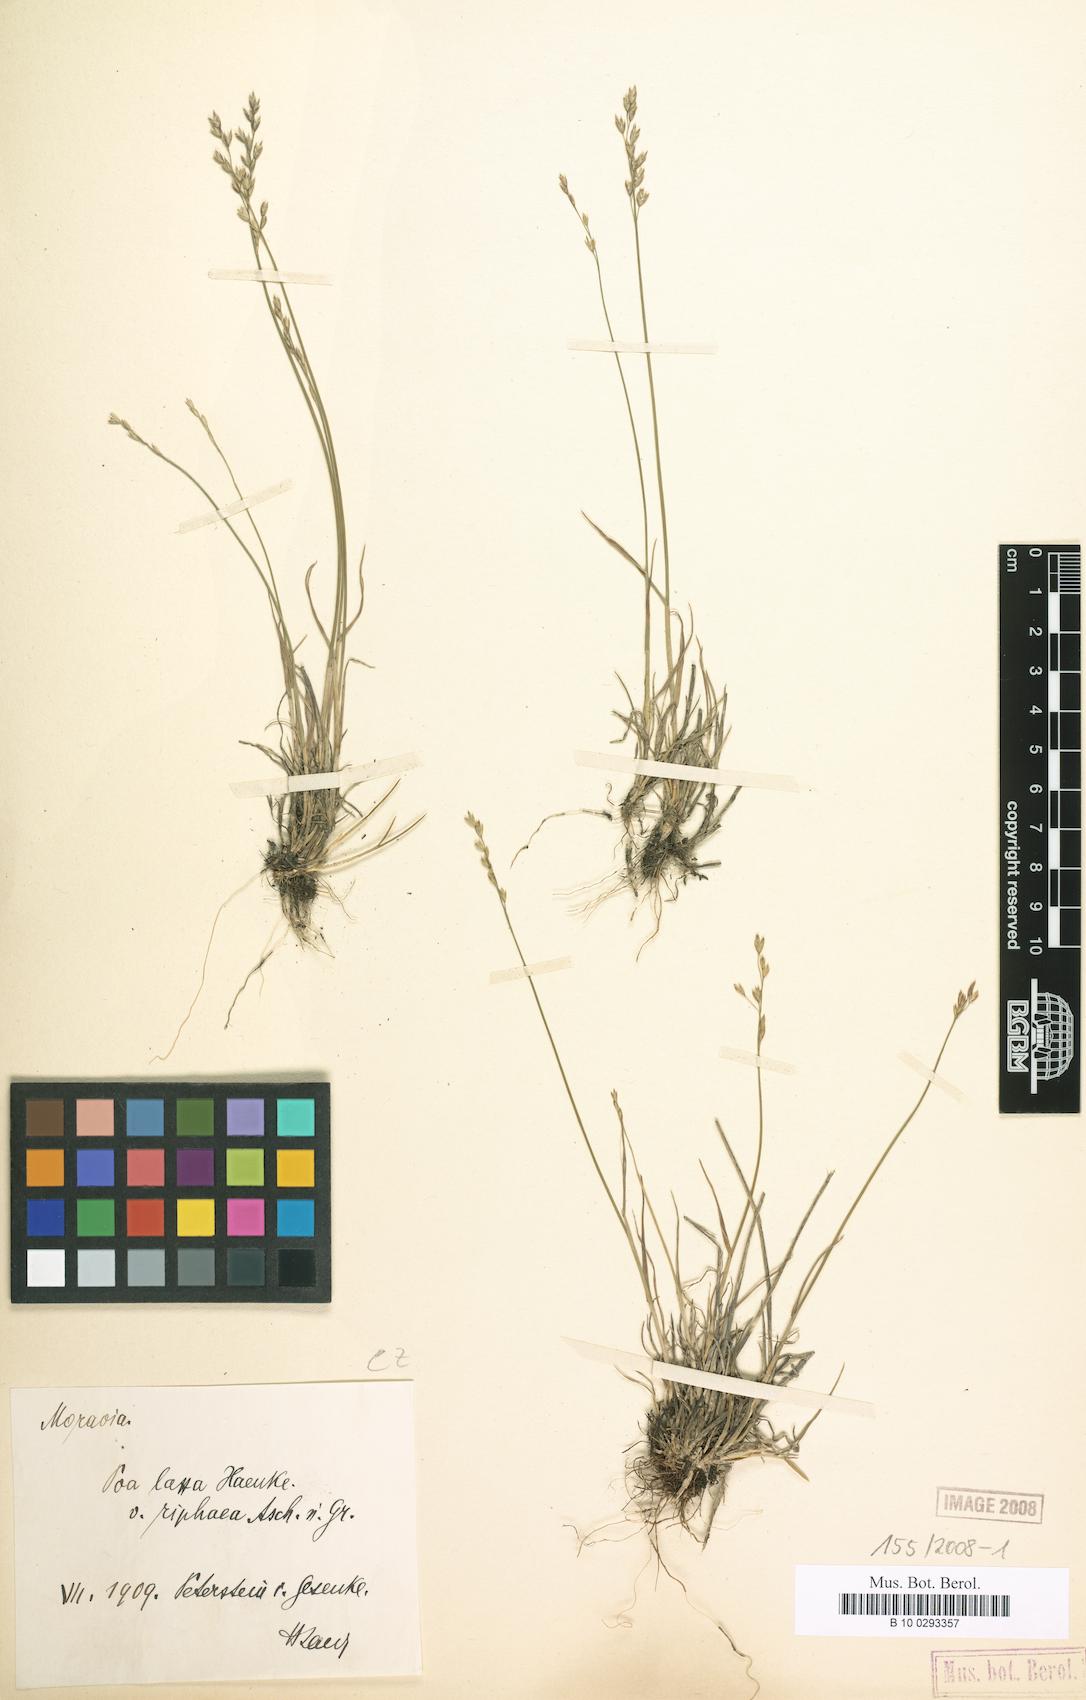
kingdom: Plantae
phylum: Tracheophyta
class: Liliopsida
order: Poales
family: Poaceae
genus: Poa
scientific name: Poa riphaea
